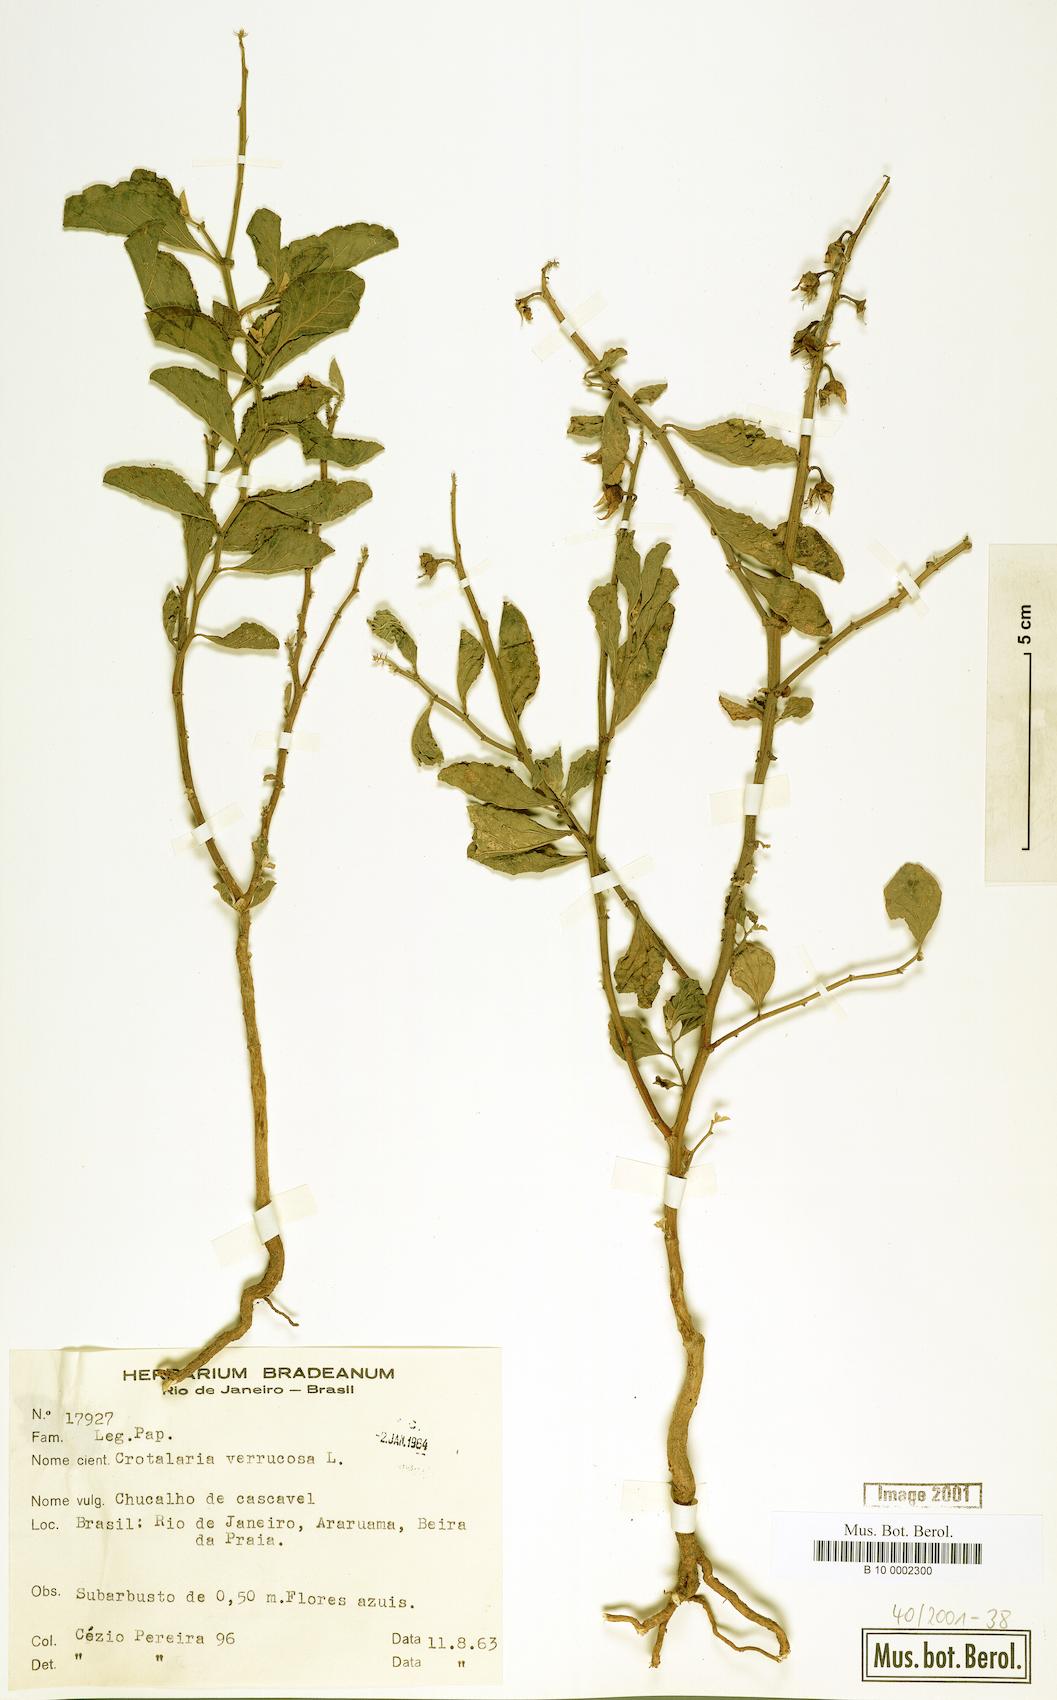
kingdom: Plantae
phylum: Tracheophyta
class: Magnoliopsida
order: Fabales
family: Fabaceae
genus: Crotalaria
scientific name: Crotalaria verrucosa
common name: Blue rattlesnake
